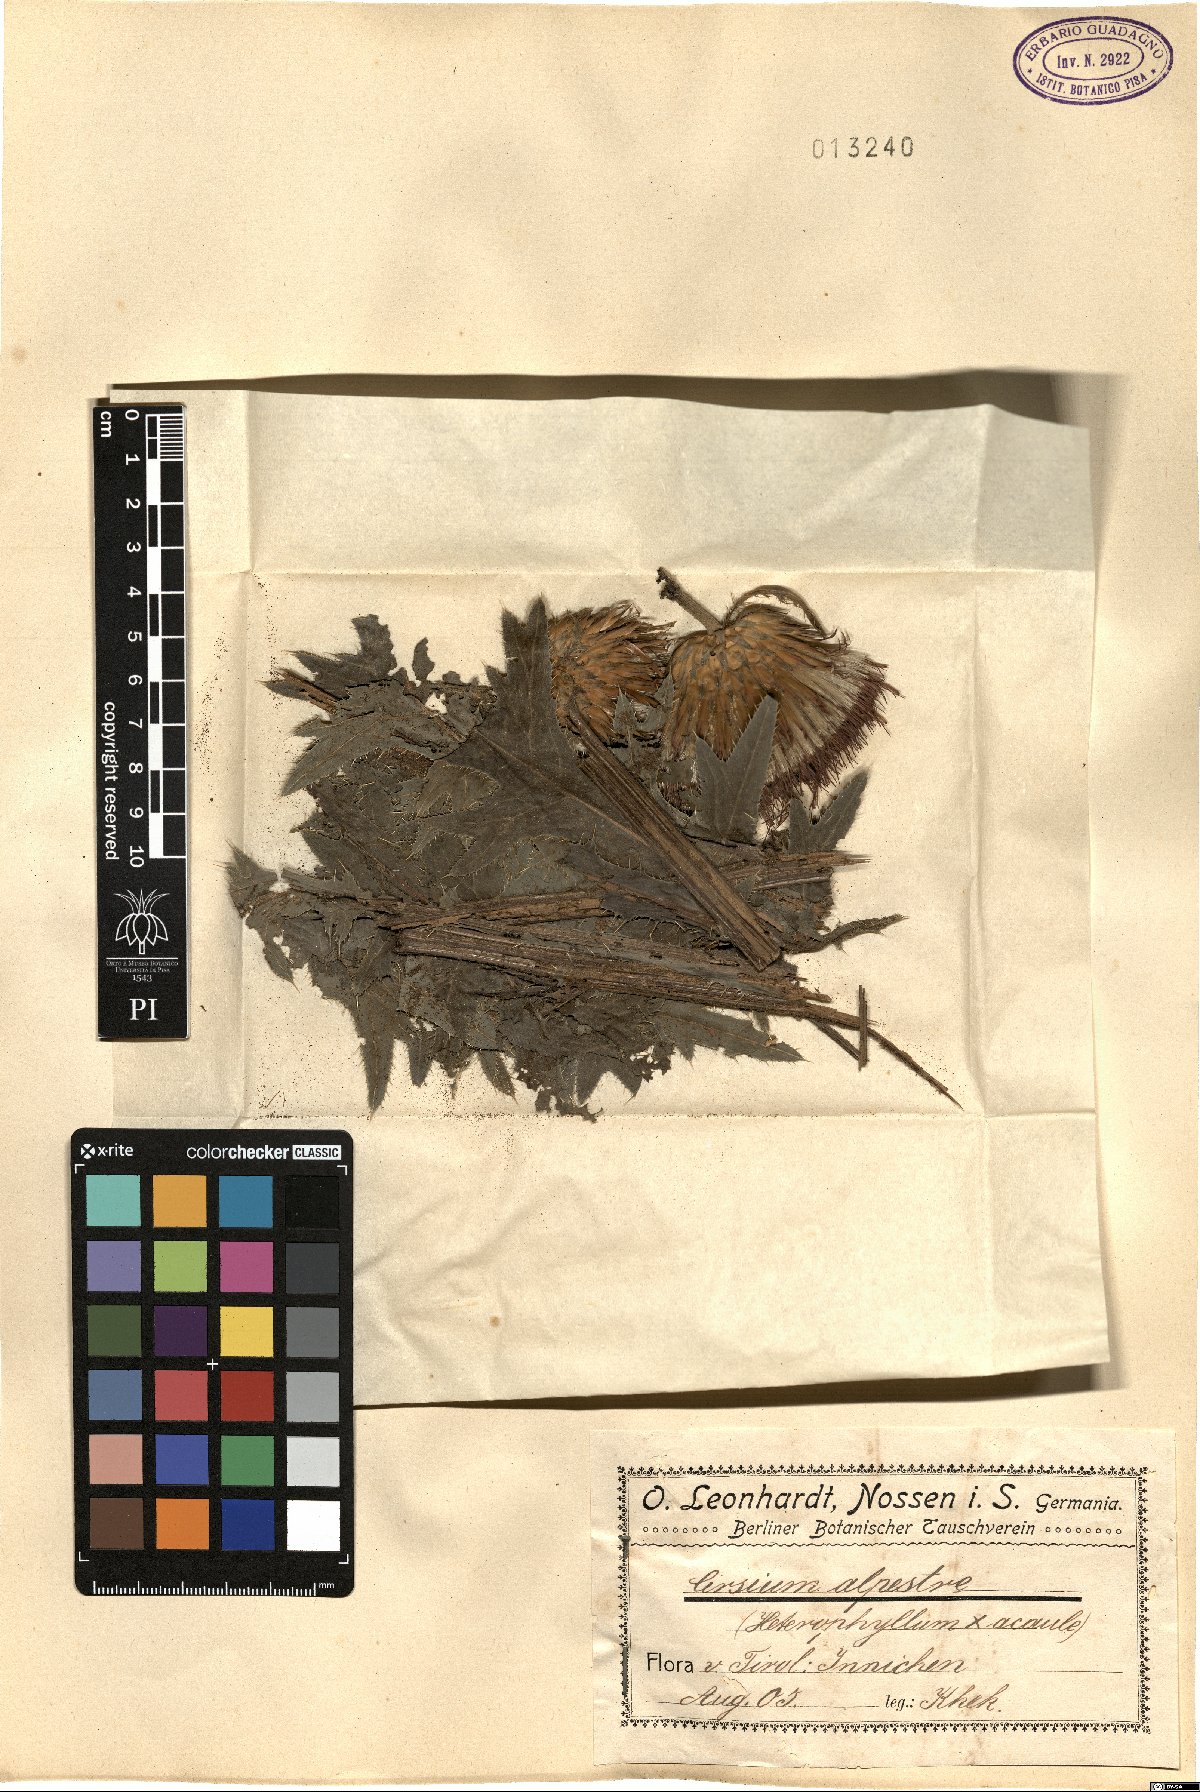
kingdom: Plantae
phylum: Tracheophyta
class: Magnoliopsida
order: Asterales
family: Asteraceae
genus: Cirsium
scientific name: Cirsium alpestre
